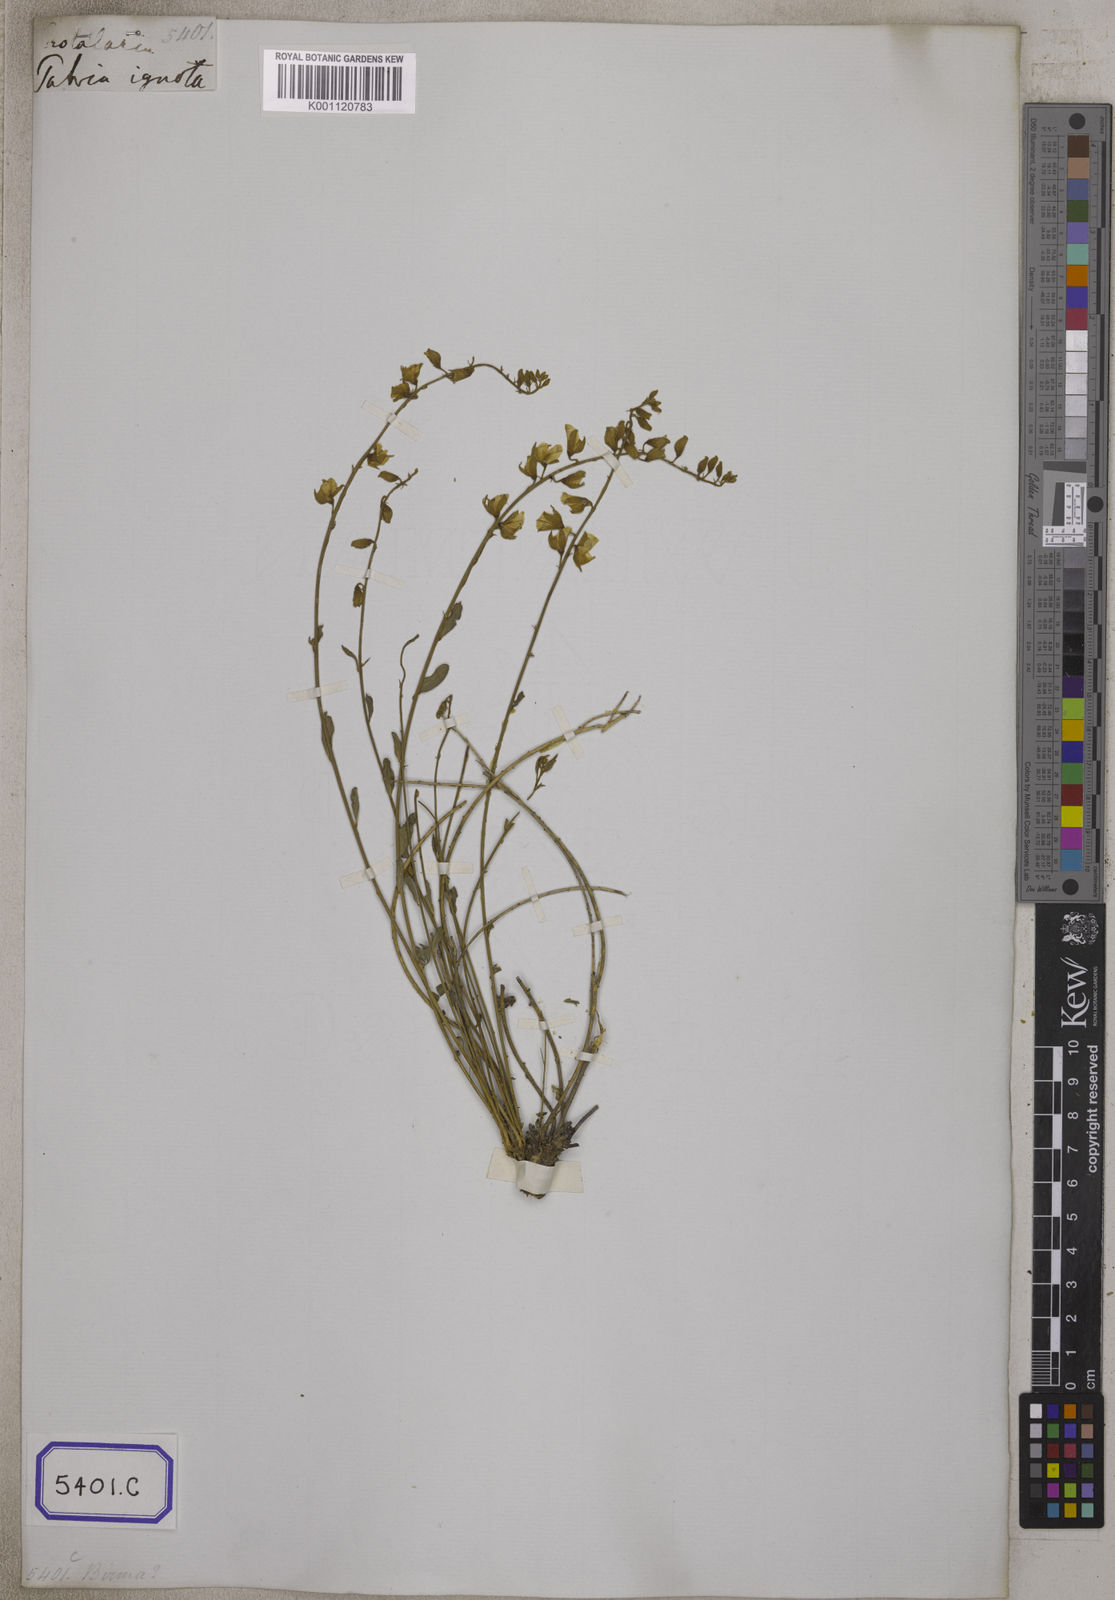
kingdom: Plantae
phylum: Tracheophyta
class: Magnoliopsida
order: Fabales
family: Fabaceae
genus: Crotalaria
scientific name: Crotalaria albida
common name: Taiwan crotalaria
